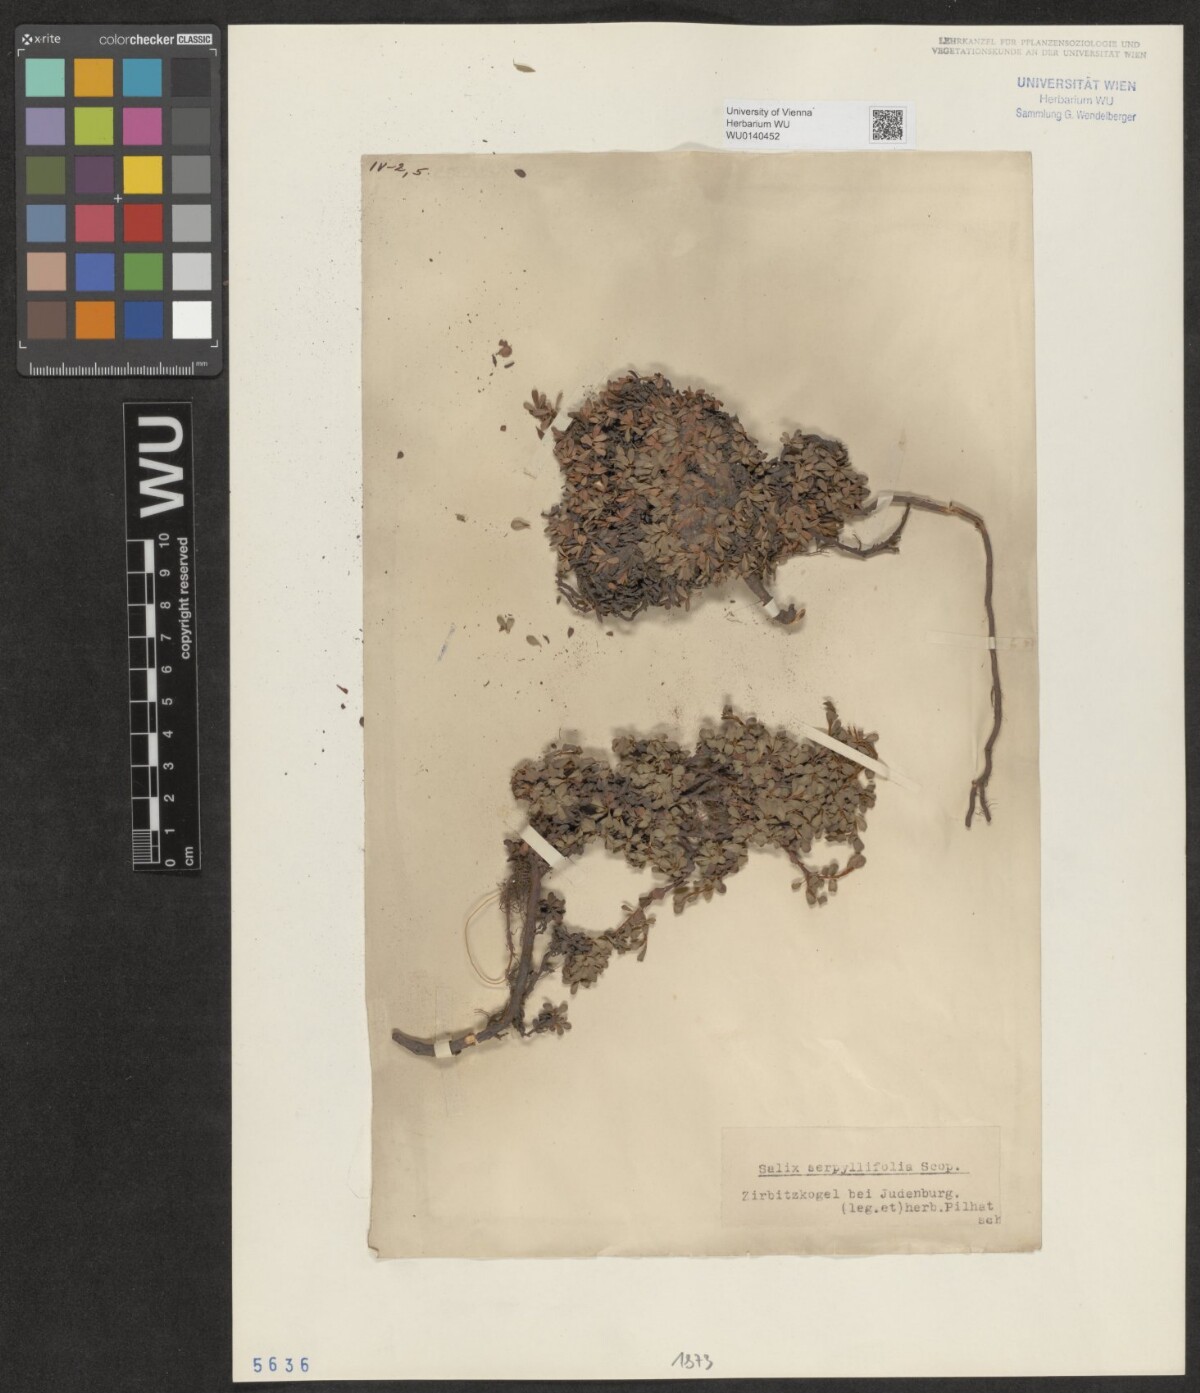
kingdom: Plantae
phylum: Tracheophyta
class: Magnoliopsida
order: Malpighiales
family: Salicaceae
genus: Salix
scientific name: Salix serpillifolia
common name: Thyme-leaf willow
